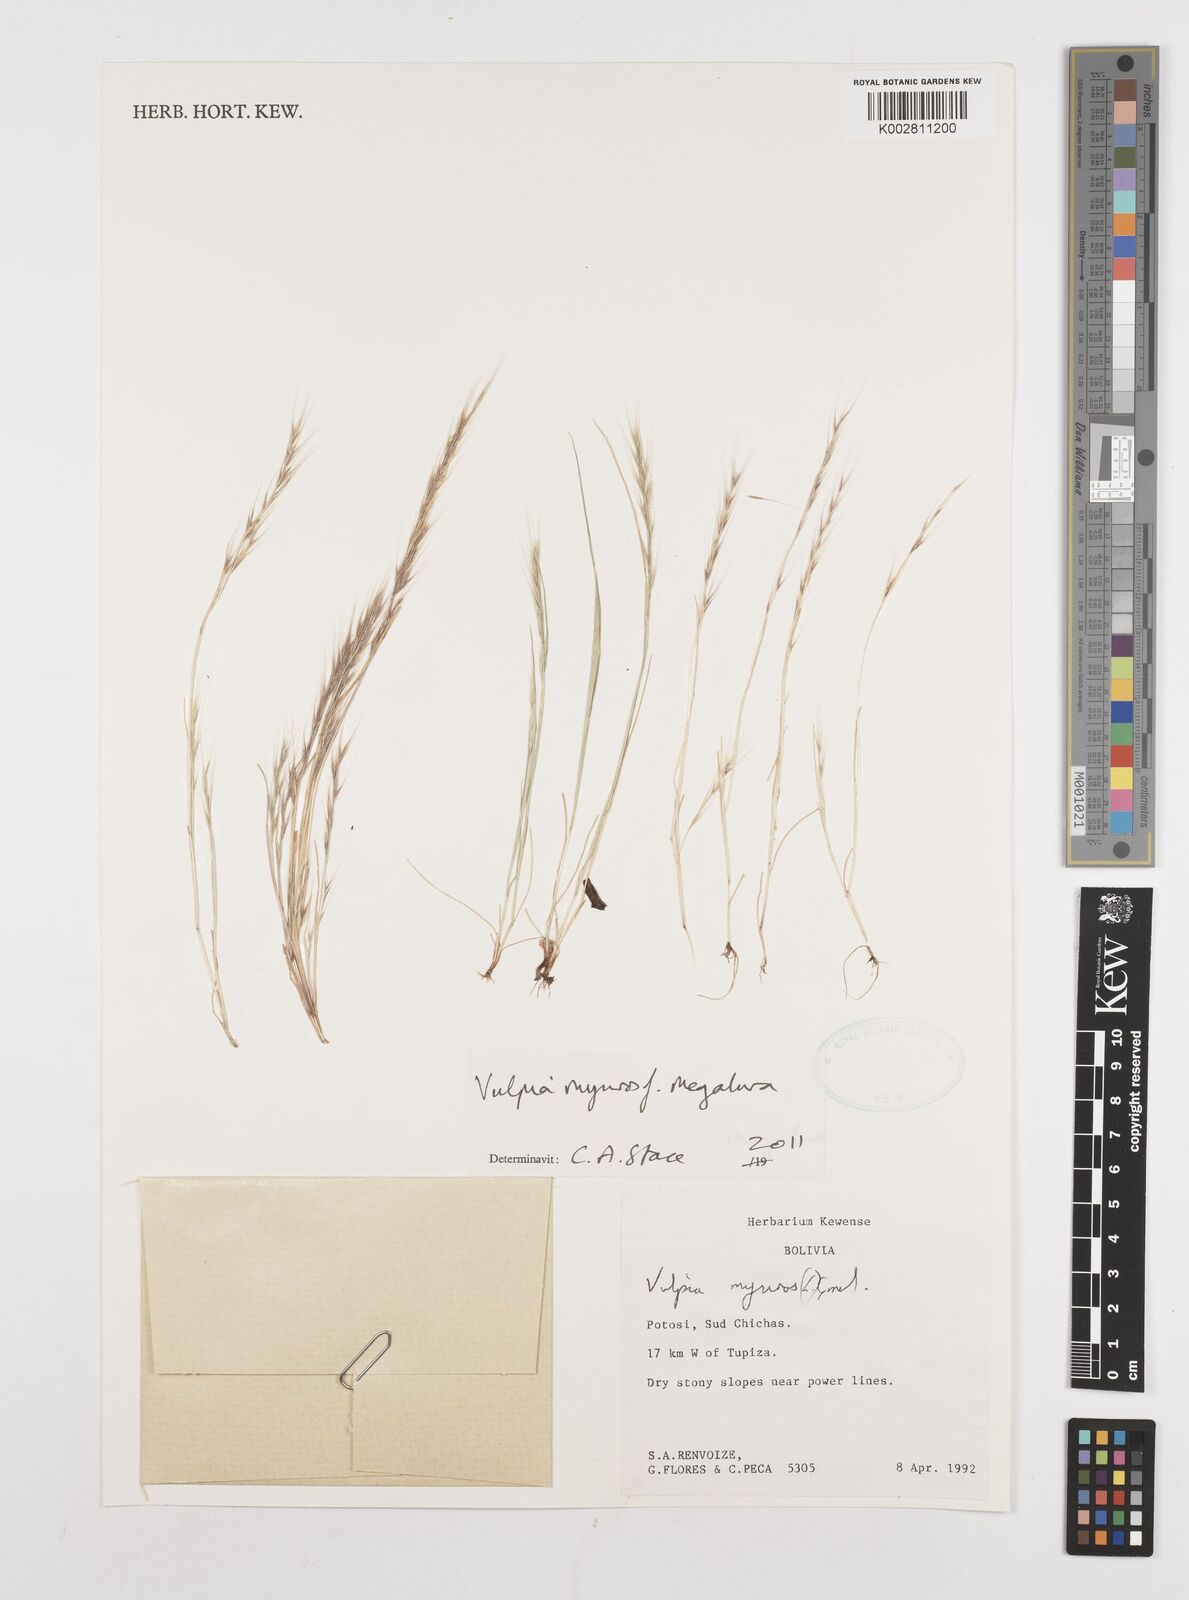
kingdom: Plantae
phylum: Tracheophyta
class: Liliopsida
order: Poales
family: Poaceae
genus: Festuca
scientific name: Festuca myuros
